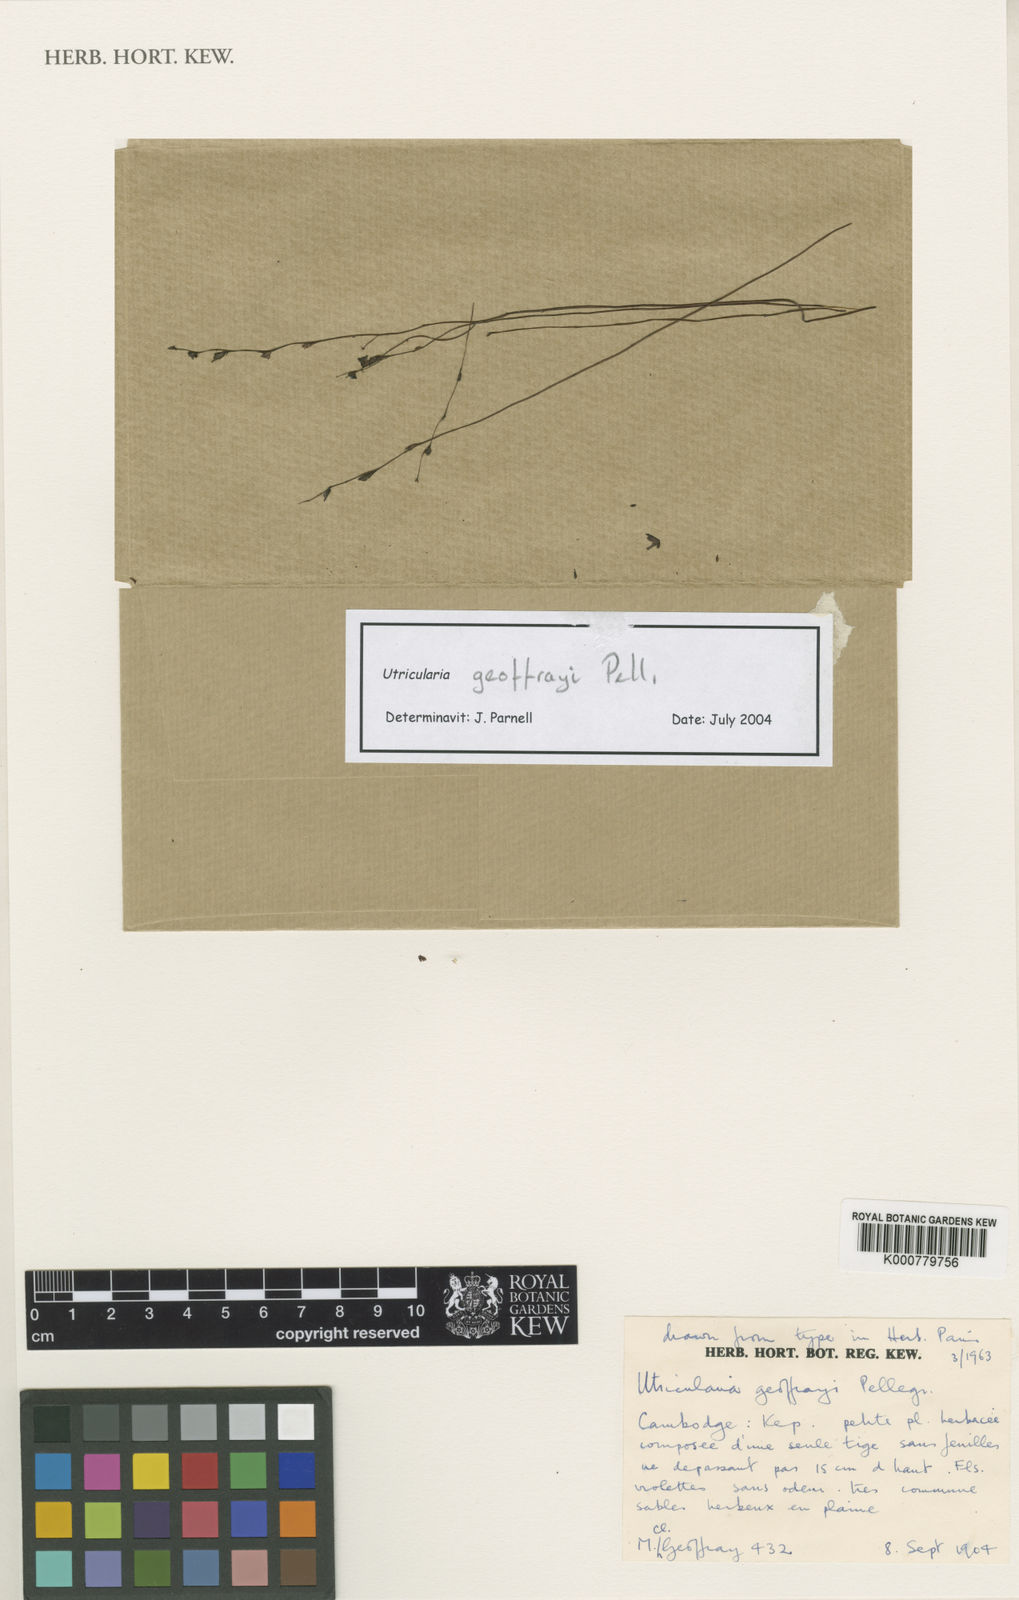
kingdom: Plantae
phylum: Tracheophyta
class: Magnoliopsida
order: Lamiales
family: Lentibulariaceae
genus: Utricularia
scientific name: Utricularia geoffrayi
